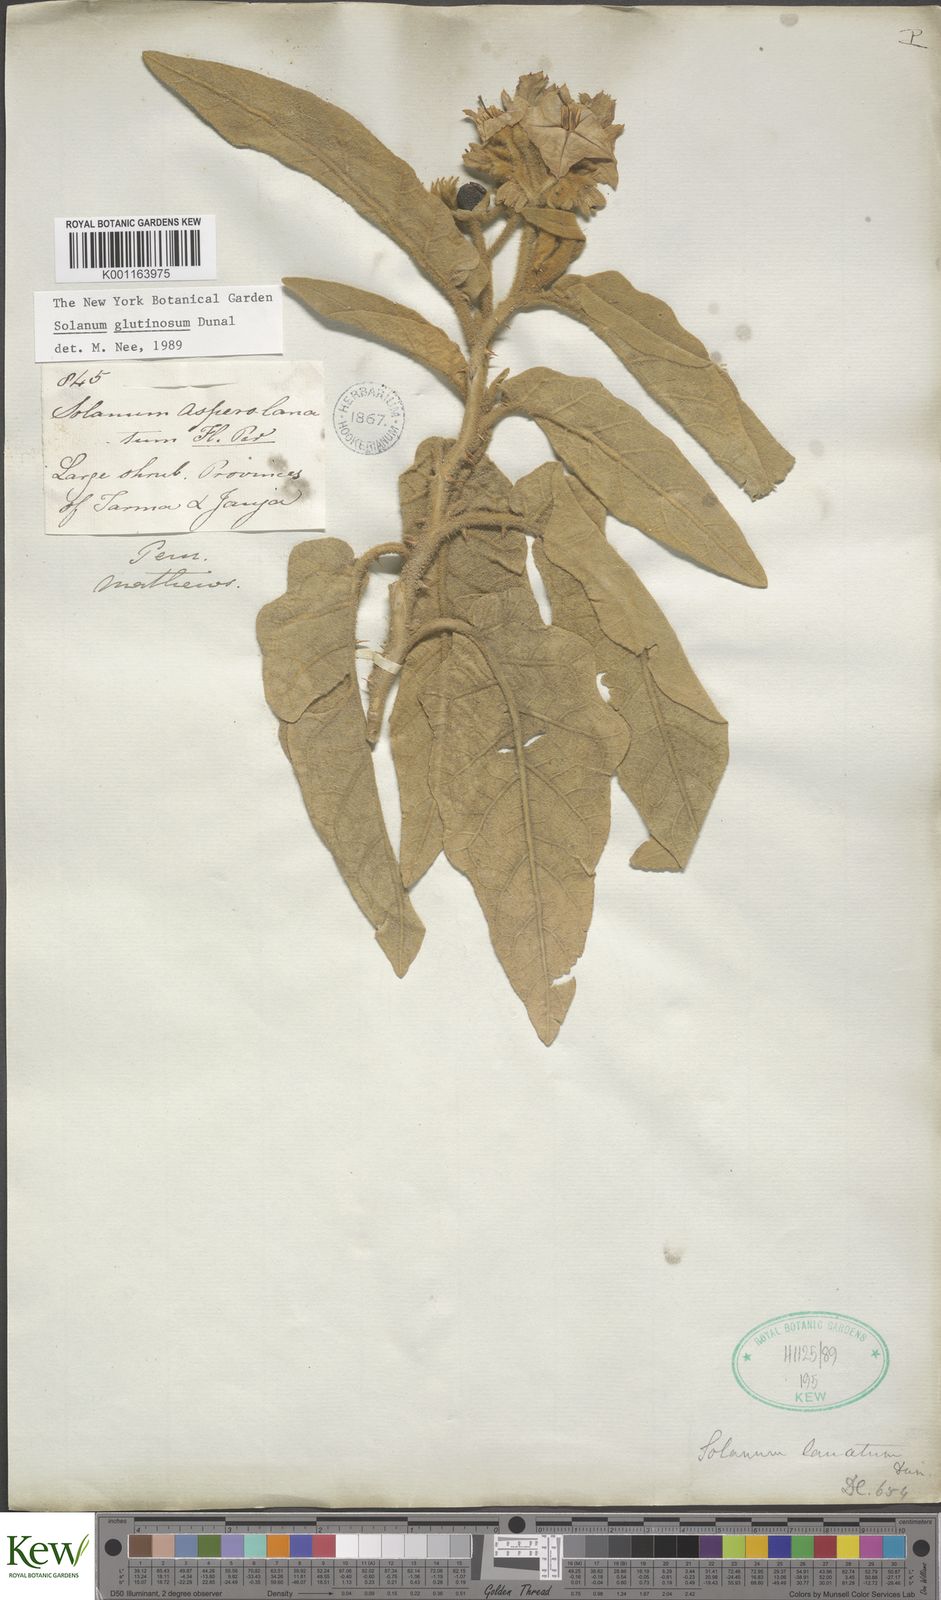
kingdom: Plantae
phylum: Tracheophyta
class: Magnoliopsida
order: Solanales
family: Solanaceae
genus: Solanum
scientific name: Solanum glutinosum
